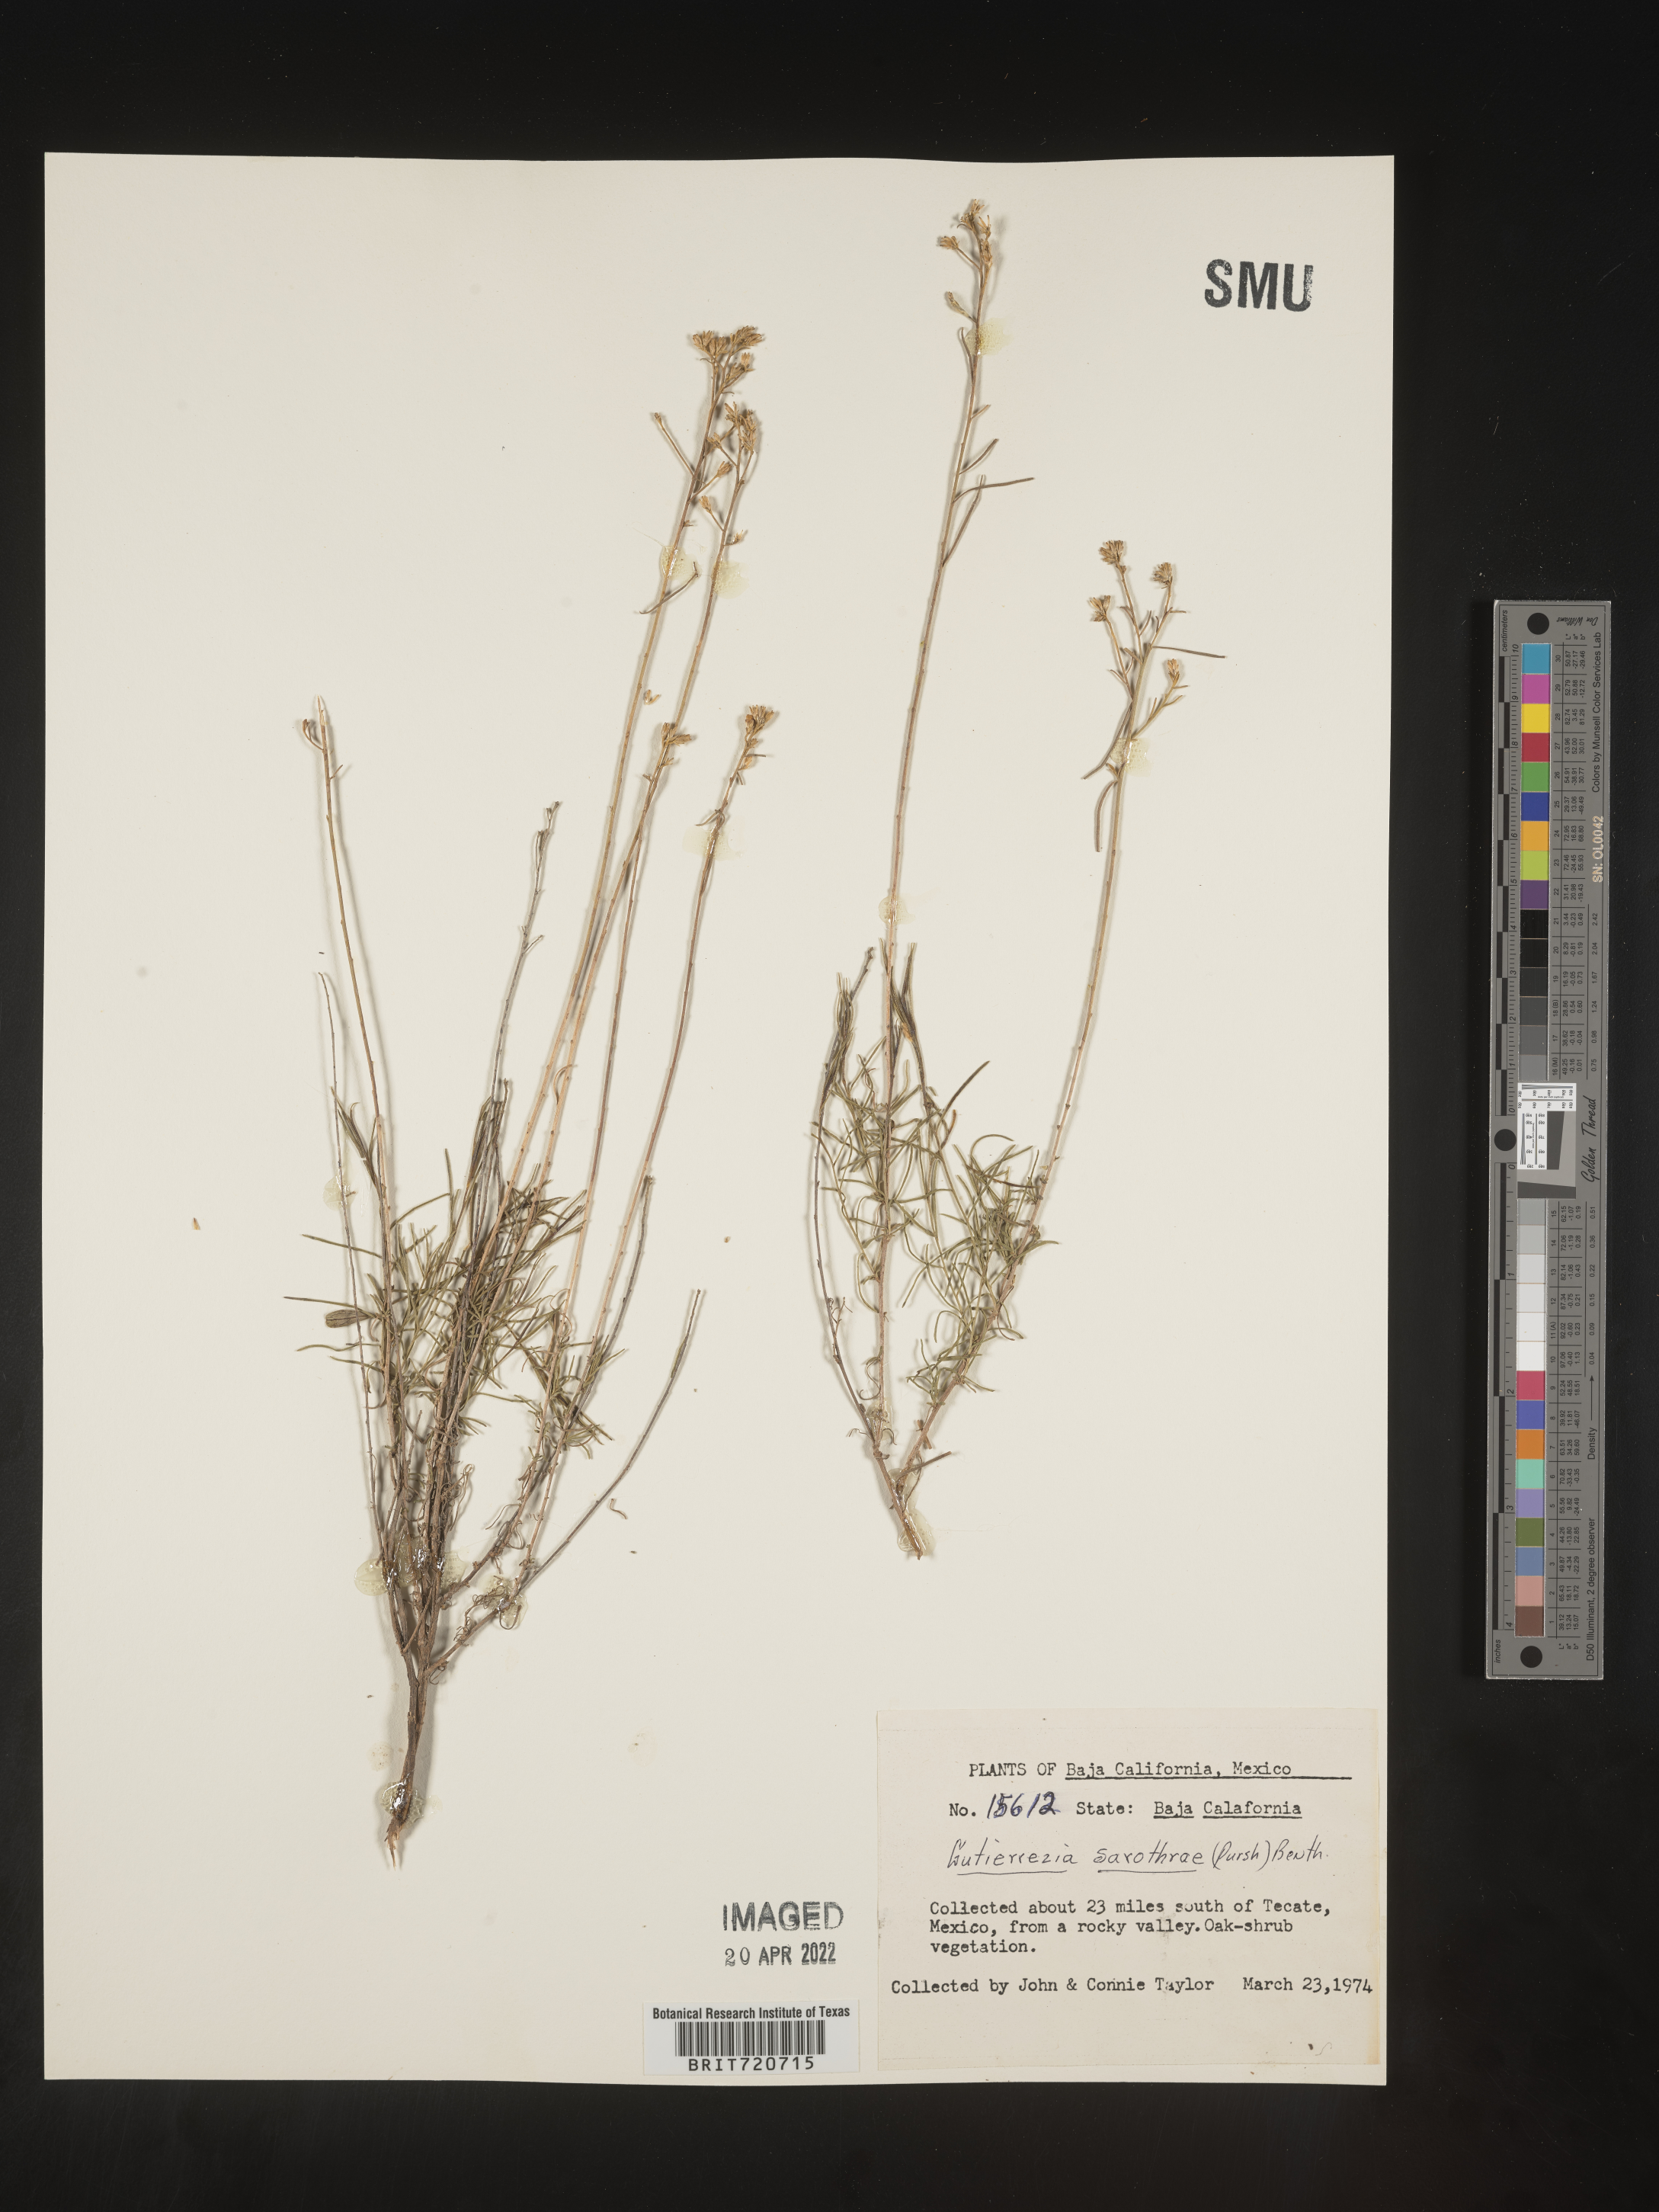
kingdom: Plantae
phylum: Tracheophyta
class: Magnoliopsida
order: Asterales
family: Asteraceae
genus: Gutierrezia
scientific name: Gutierrezia microcephala
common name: Thread snakeweed
